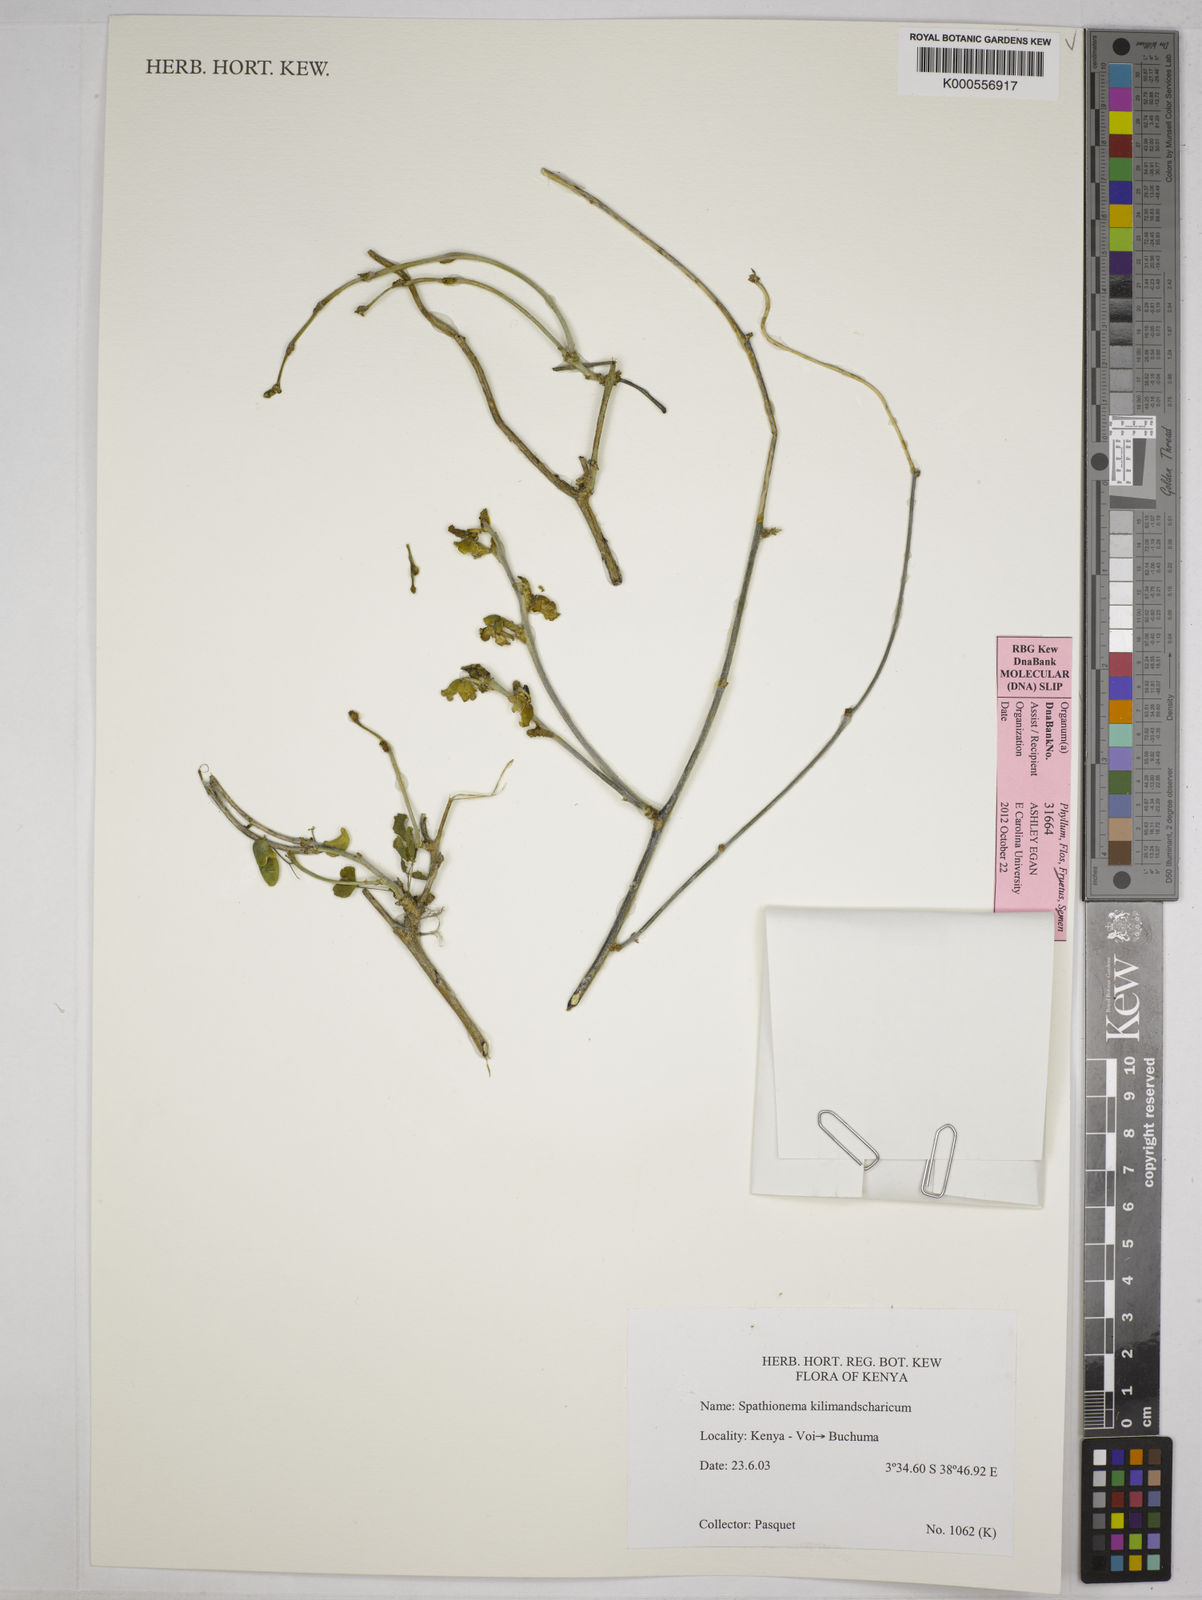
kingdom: Plantae
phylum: Tracheophyta
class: Magnoliopsida
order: Fabales
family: Fabaceae
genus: Spathionema
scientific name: Spathionema kilimandscharicum
